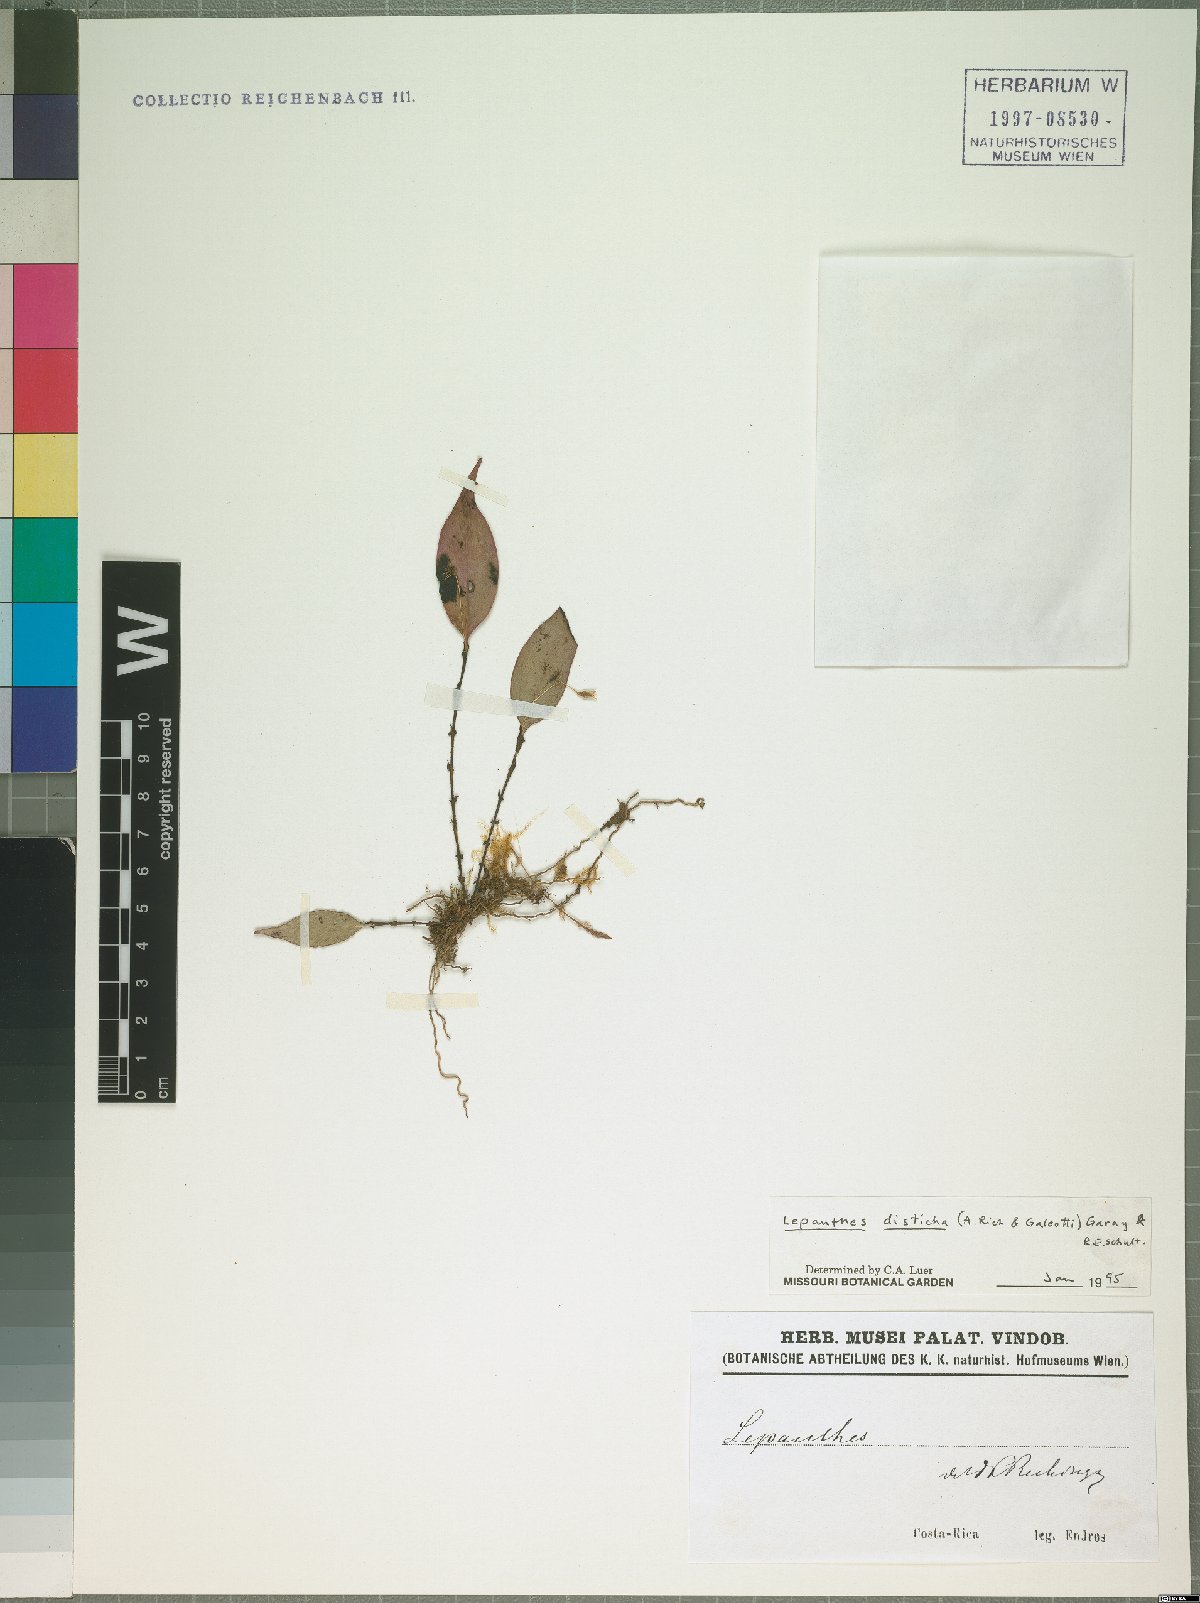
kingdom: Plantae
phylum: Tracheophyta
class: Liliopsida
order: Asparagales
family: Orchidaceae
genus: Lepanthes
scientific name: Lepanthes disticha
